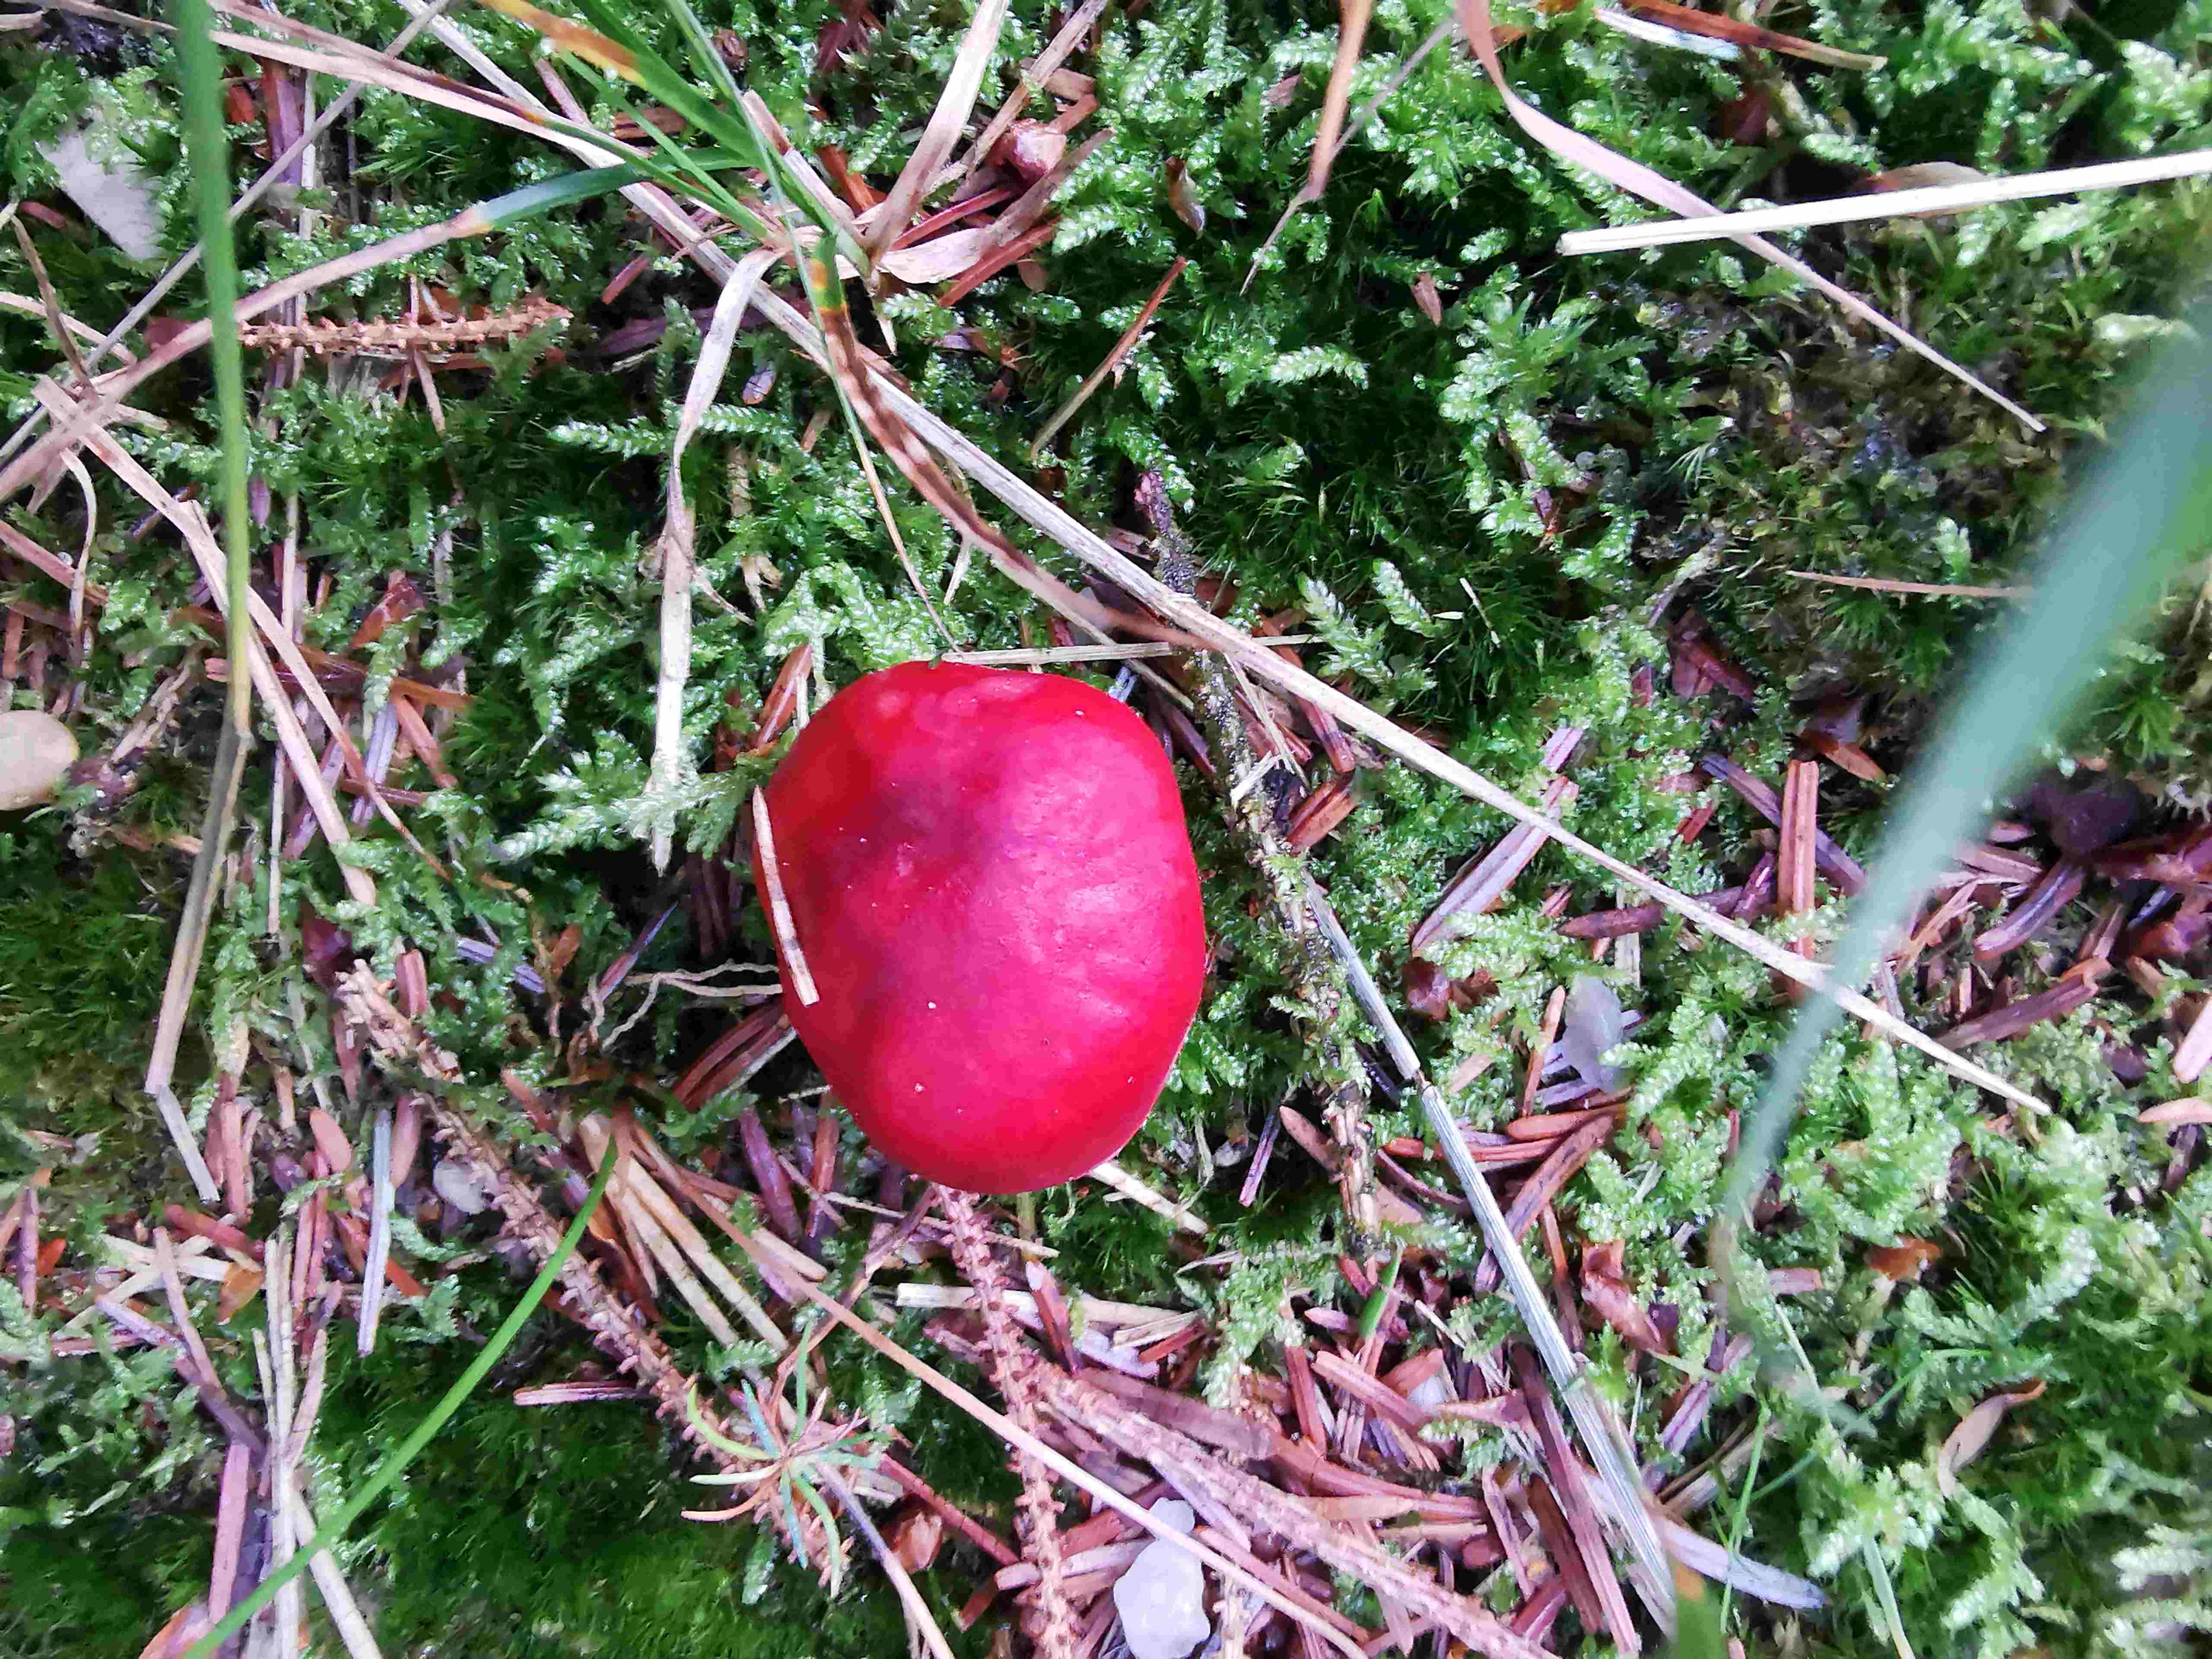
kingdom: Fungi
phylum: Basidiomycota
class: Agaricomycetes
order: Russulales
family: Russulaceae
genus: Russula
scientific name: Russula emetica
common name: stor gift-skørhat
